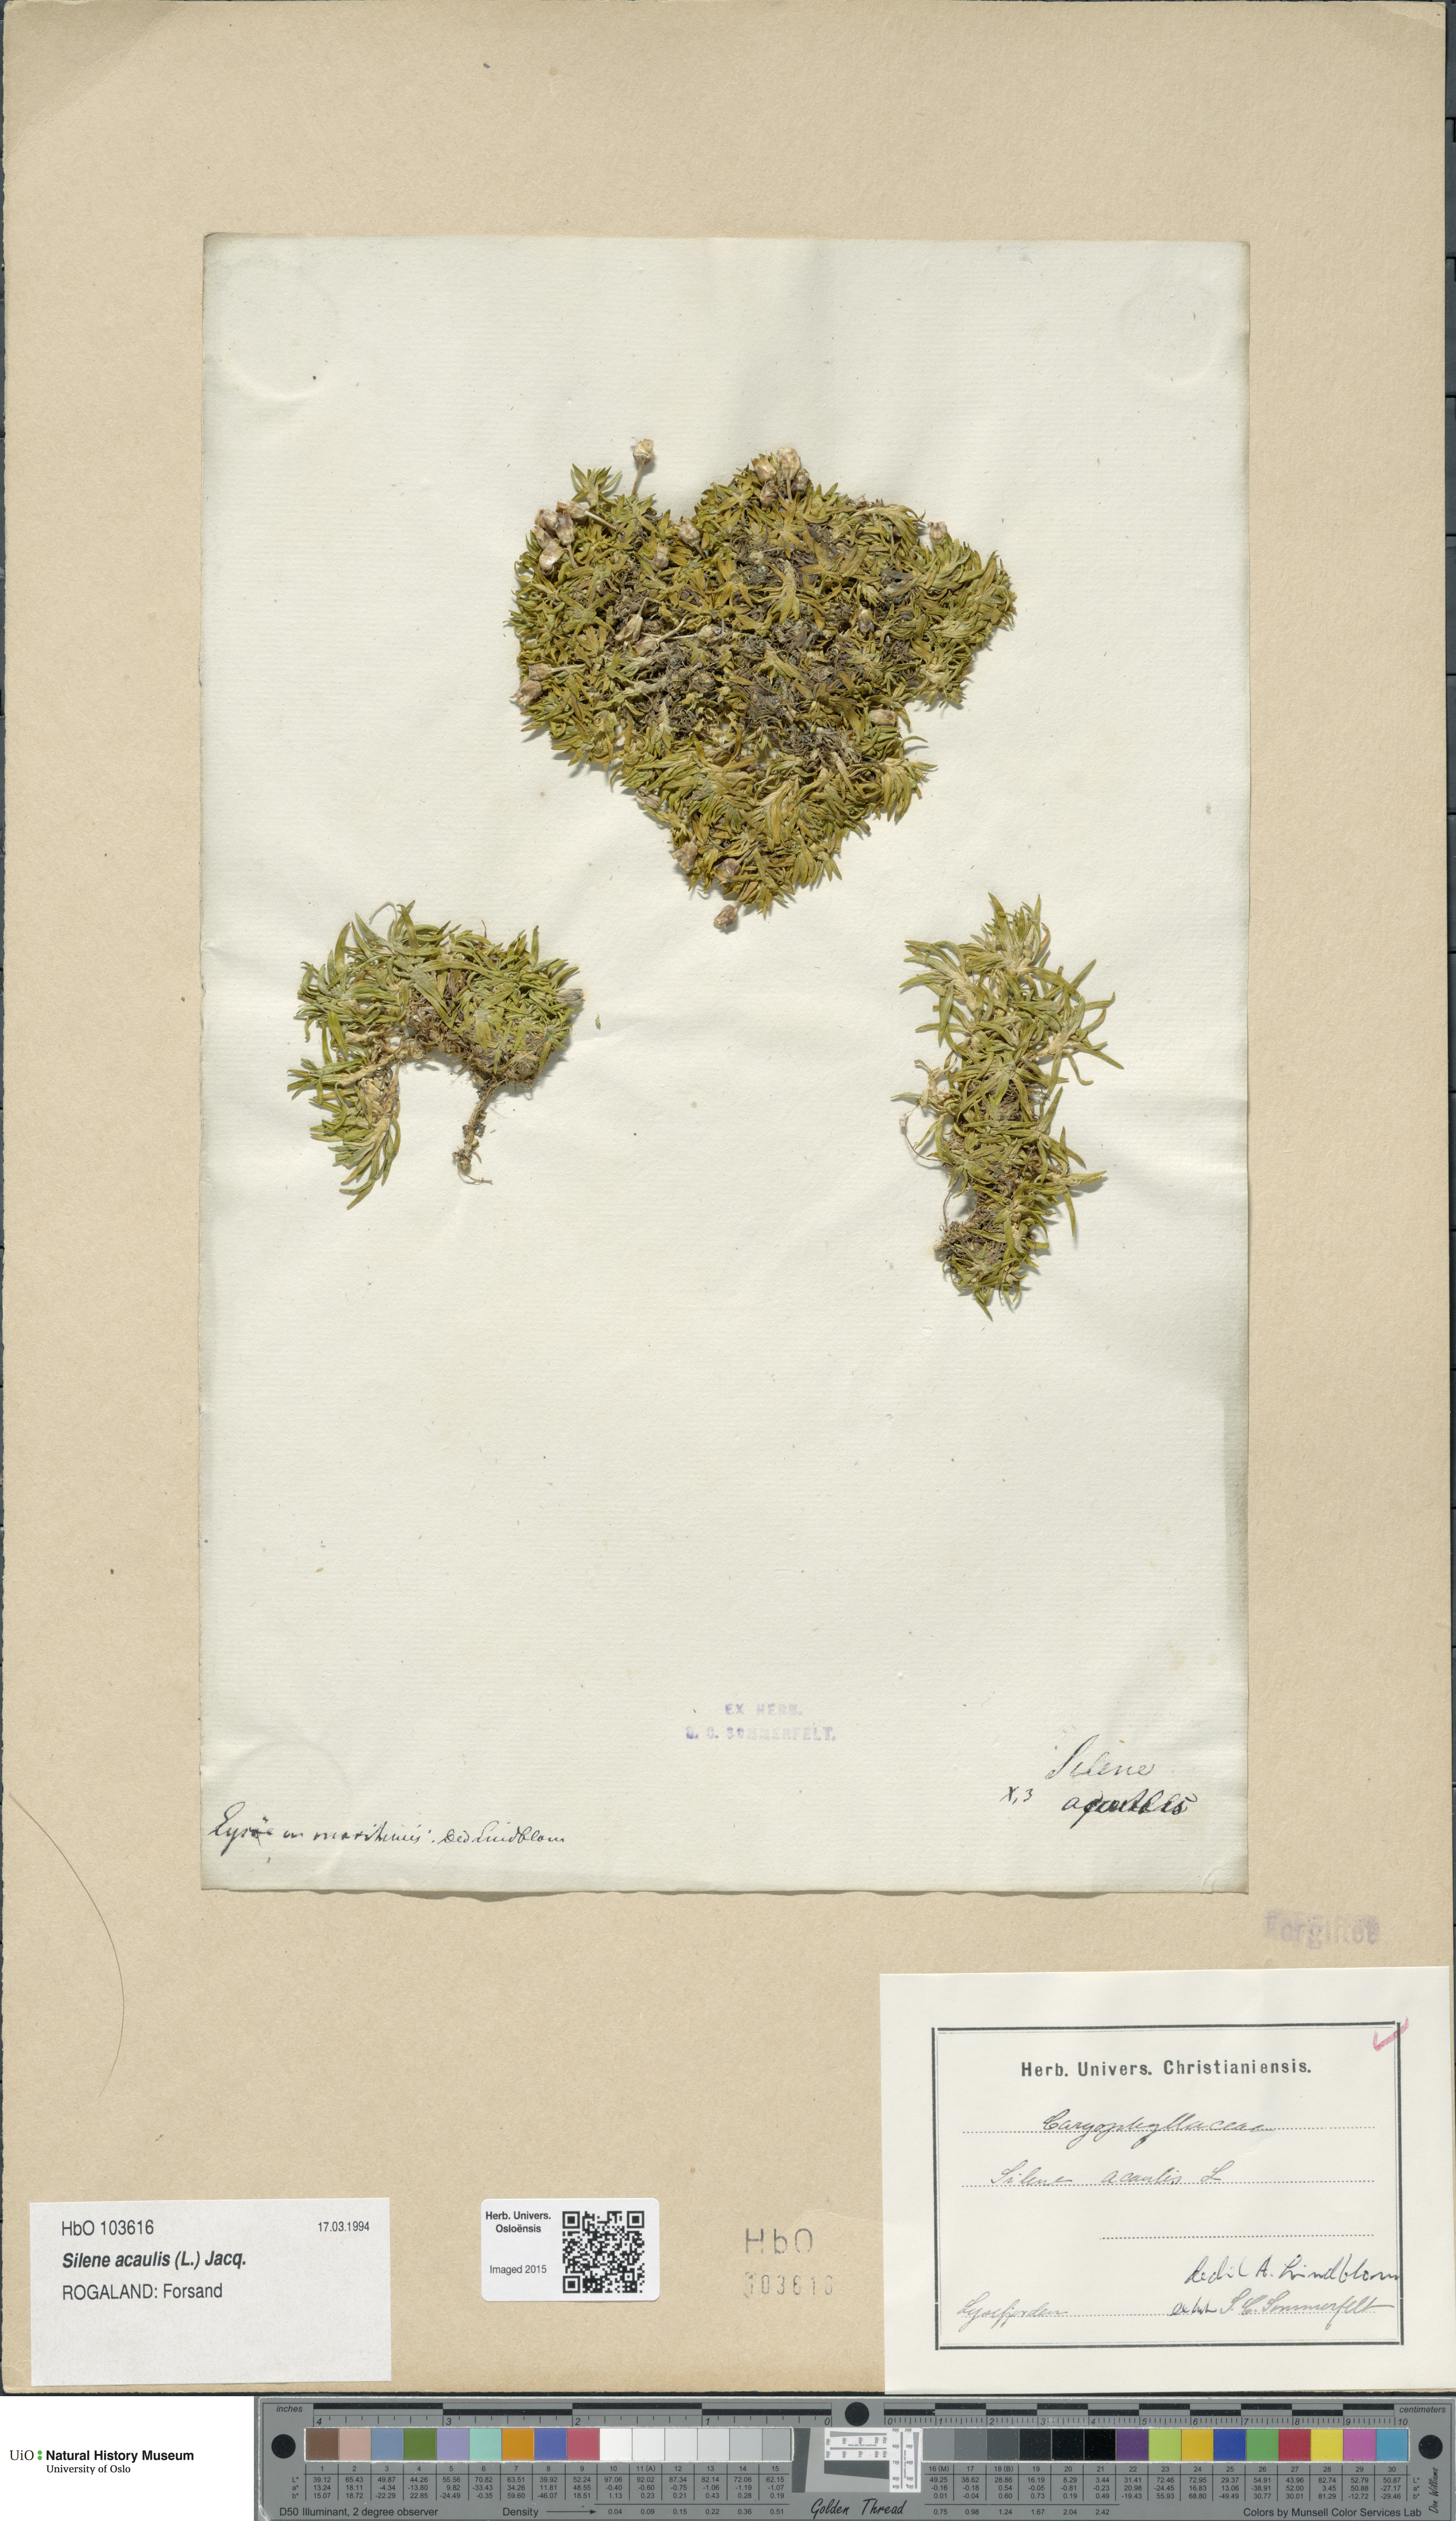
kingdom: Plantae
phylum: Tracheophyta
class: Magnoliopsida
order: Caryophyllales
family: Caryophyllaceae
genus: Silene
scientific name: Silene acaulis
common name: Moss campion
